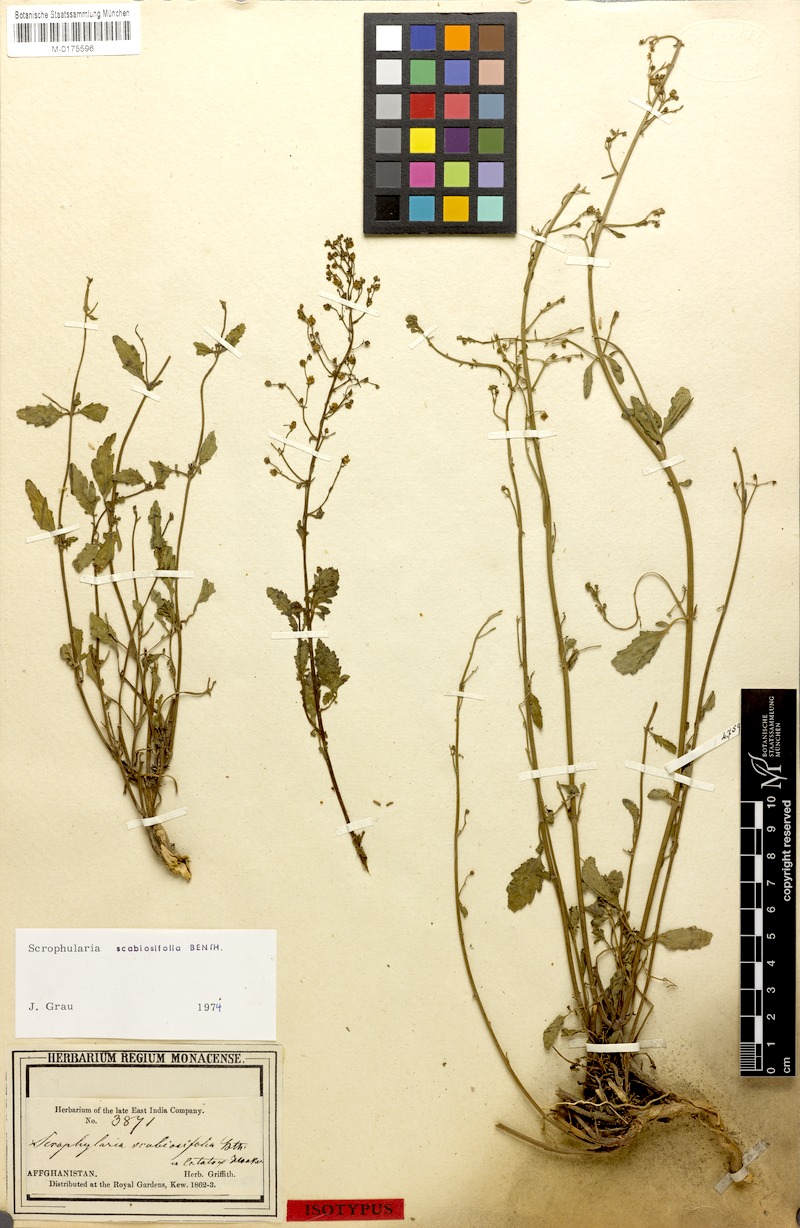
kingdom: Plantae
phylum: Tracheophyta
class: Magnoliopsida
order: Lamiales
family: Scrophulariaceae
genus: Scrophularia
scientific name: Scrophularia scabiosifolia
